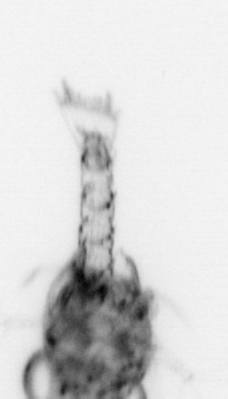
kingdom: Animalia
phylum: Arthropoda
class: Malacostraca
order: Decapoda
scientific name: Decapoda
